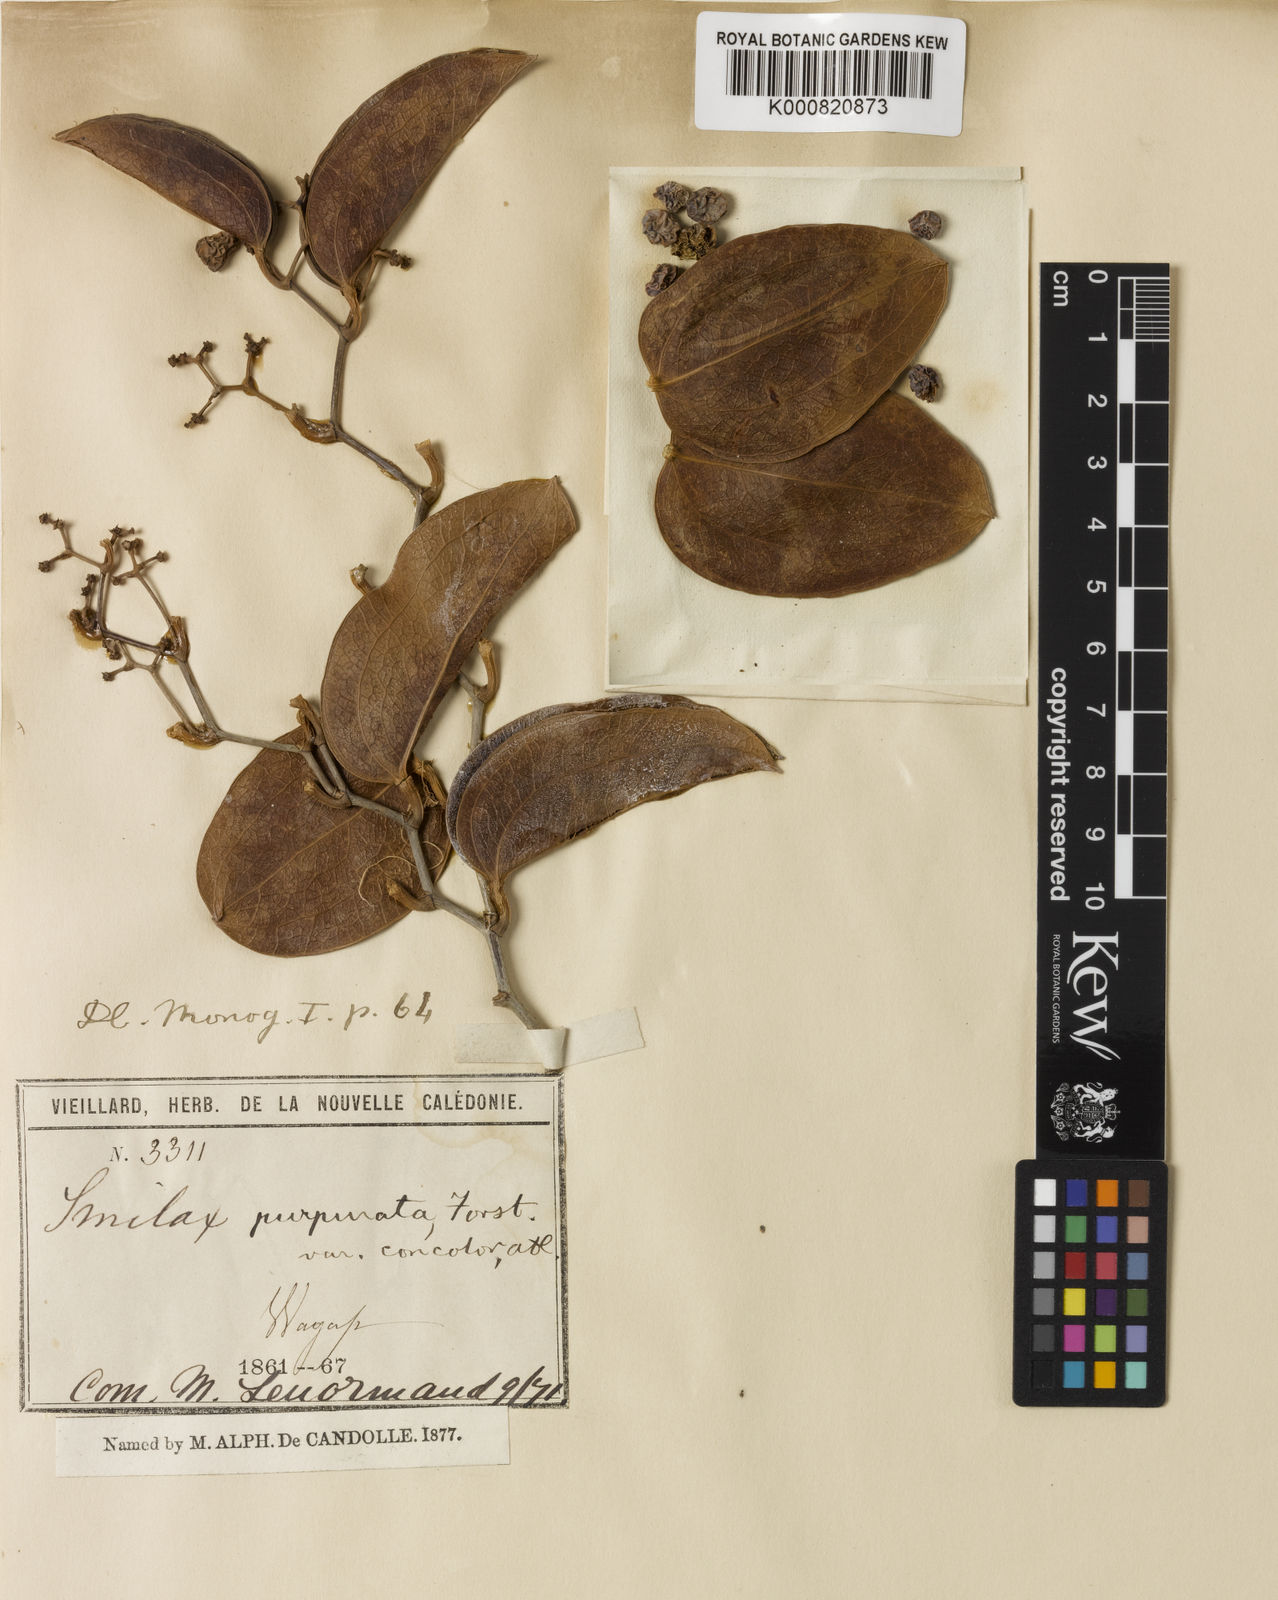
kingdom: Plantae
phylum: Tracheophyta
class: Liliopsida
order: Liliales
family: Smilacaceae
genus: Smilax
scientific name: Smilax purpurata
